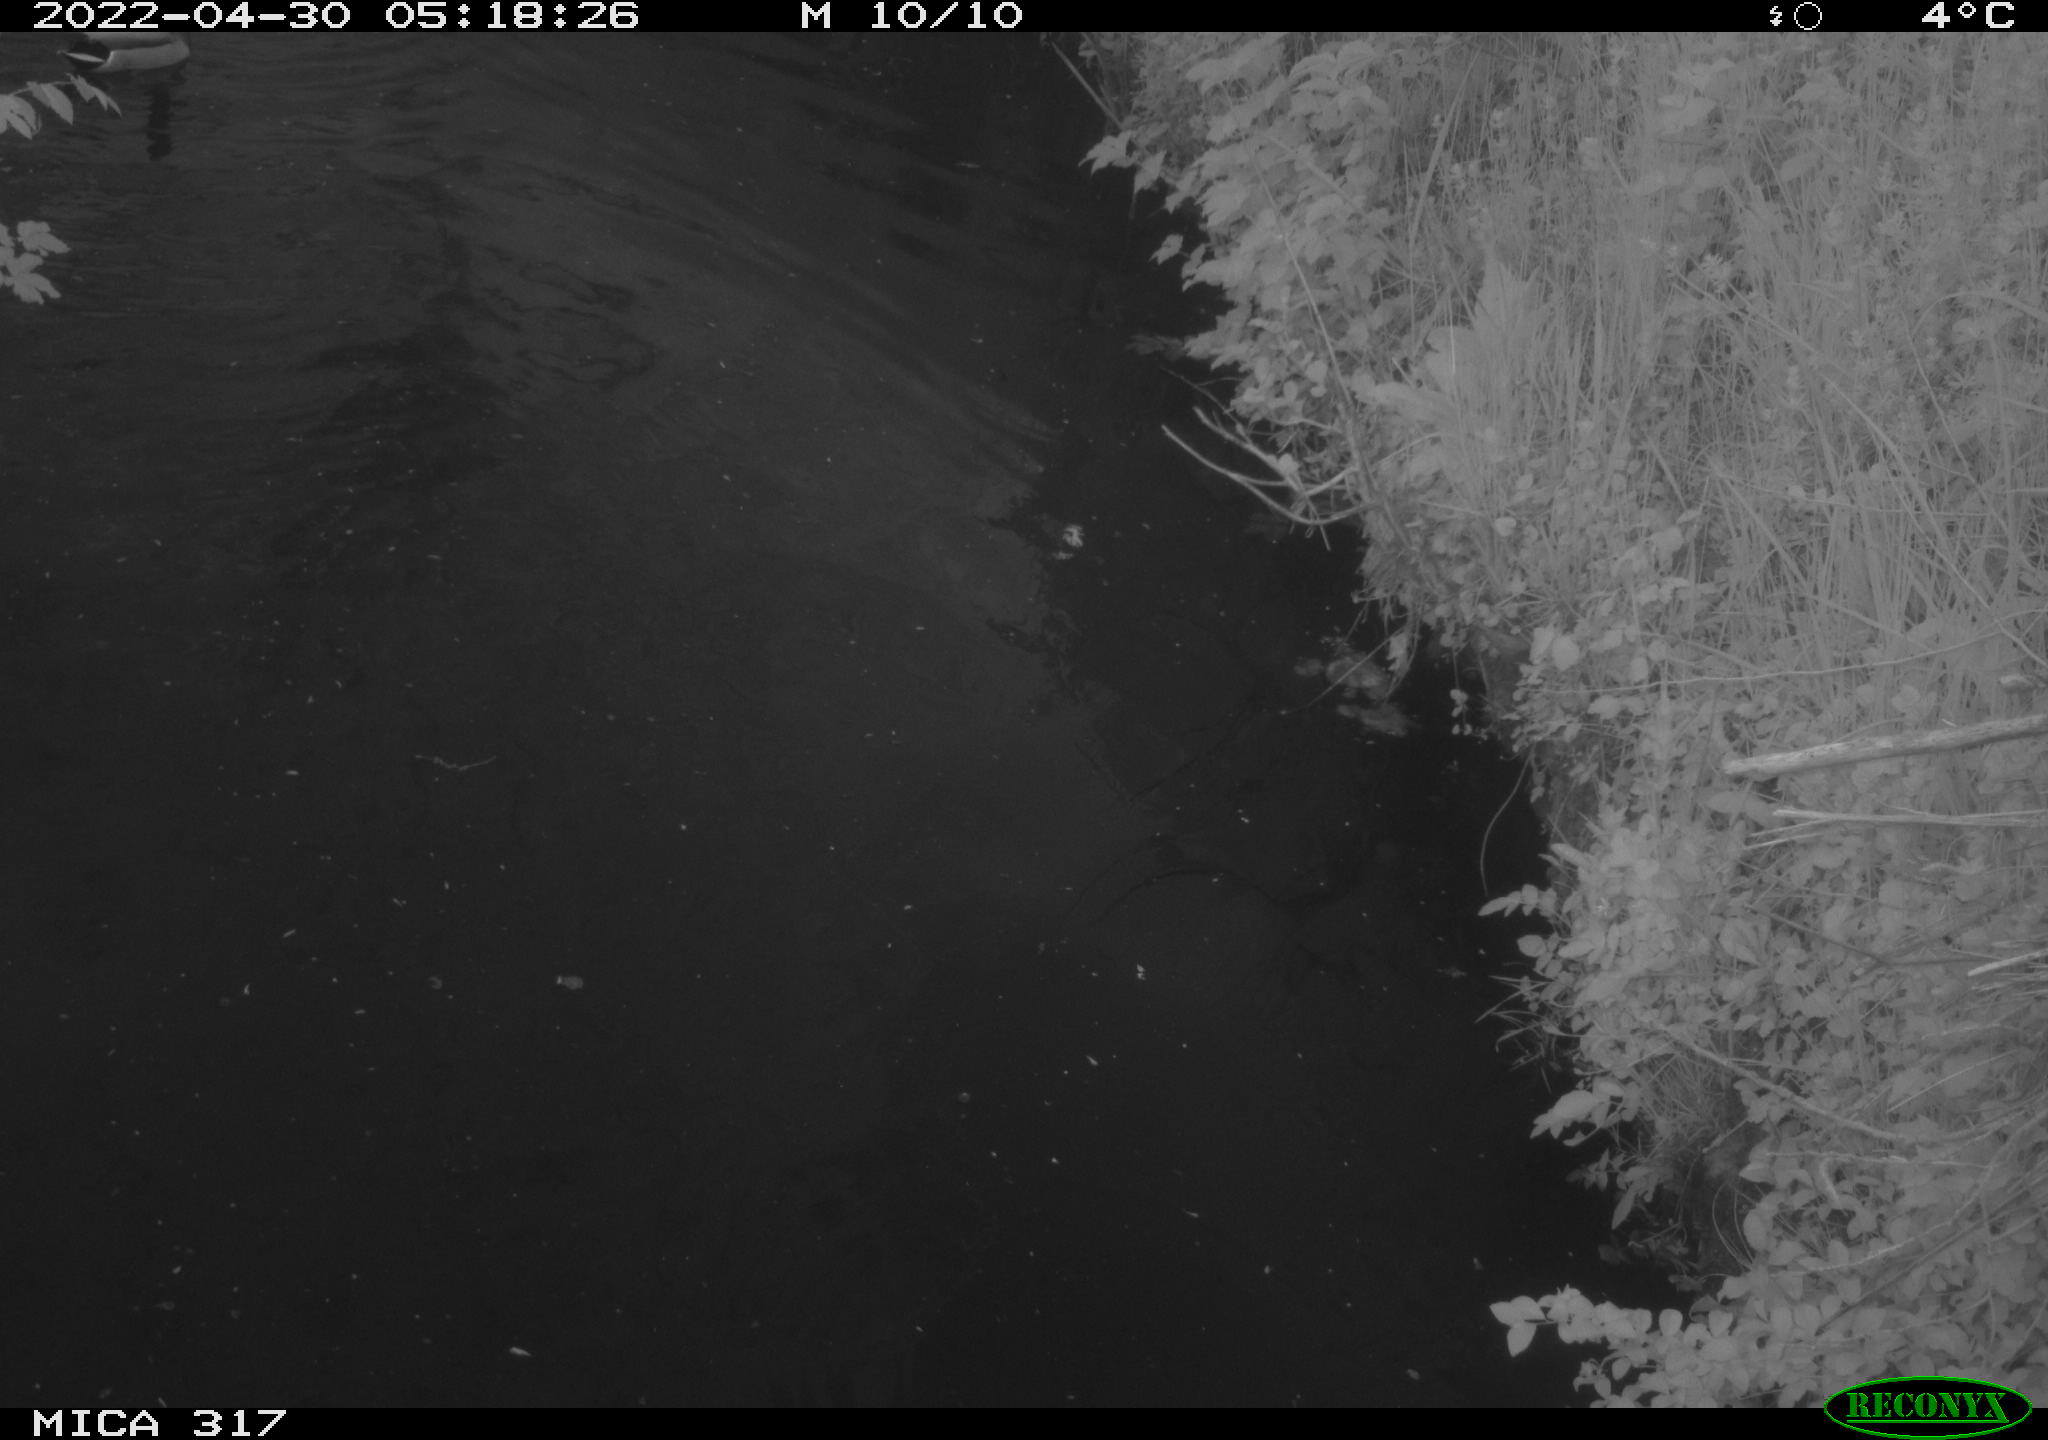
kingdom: Animalia
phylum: Chordata
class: Aves
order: Anseriformes
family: Anatidae
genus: Anas
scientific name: Anas platyrhynchos
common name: Mallard
